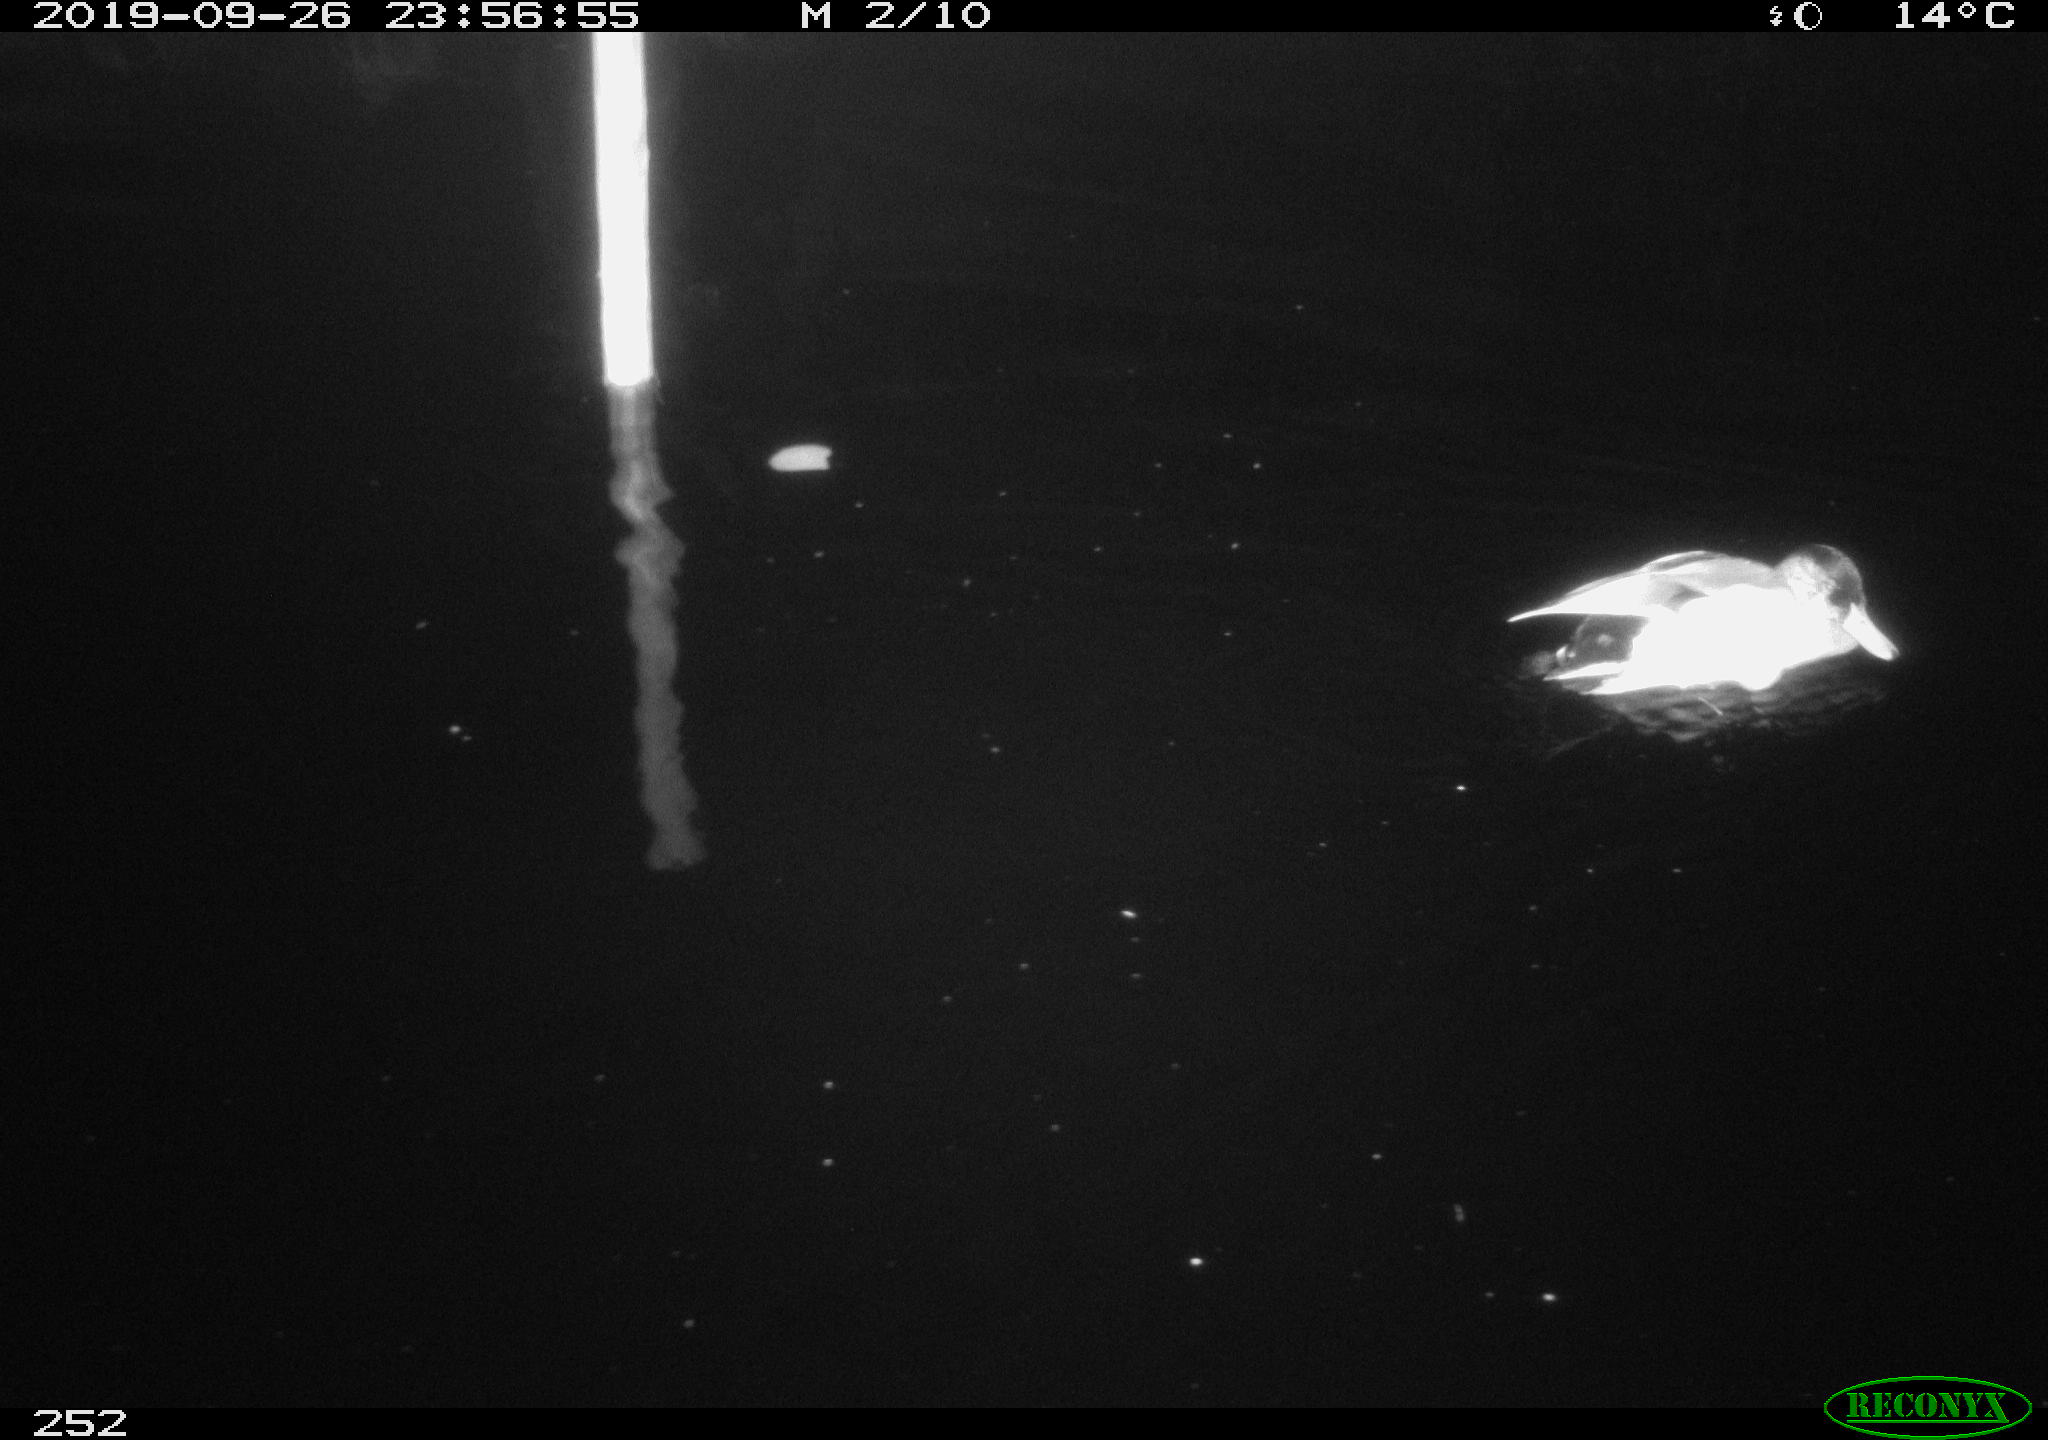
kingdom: Animalia
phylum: Chordata
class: Aves
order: Anseriformes
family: Anatidae
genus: Anas
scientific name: Anas platyrhynchos
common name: Mallard
